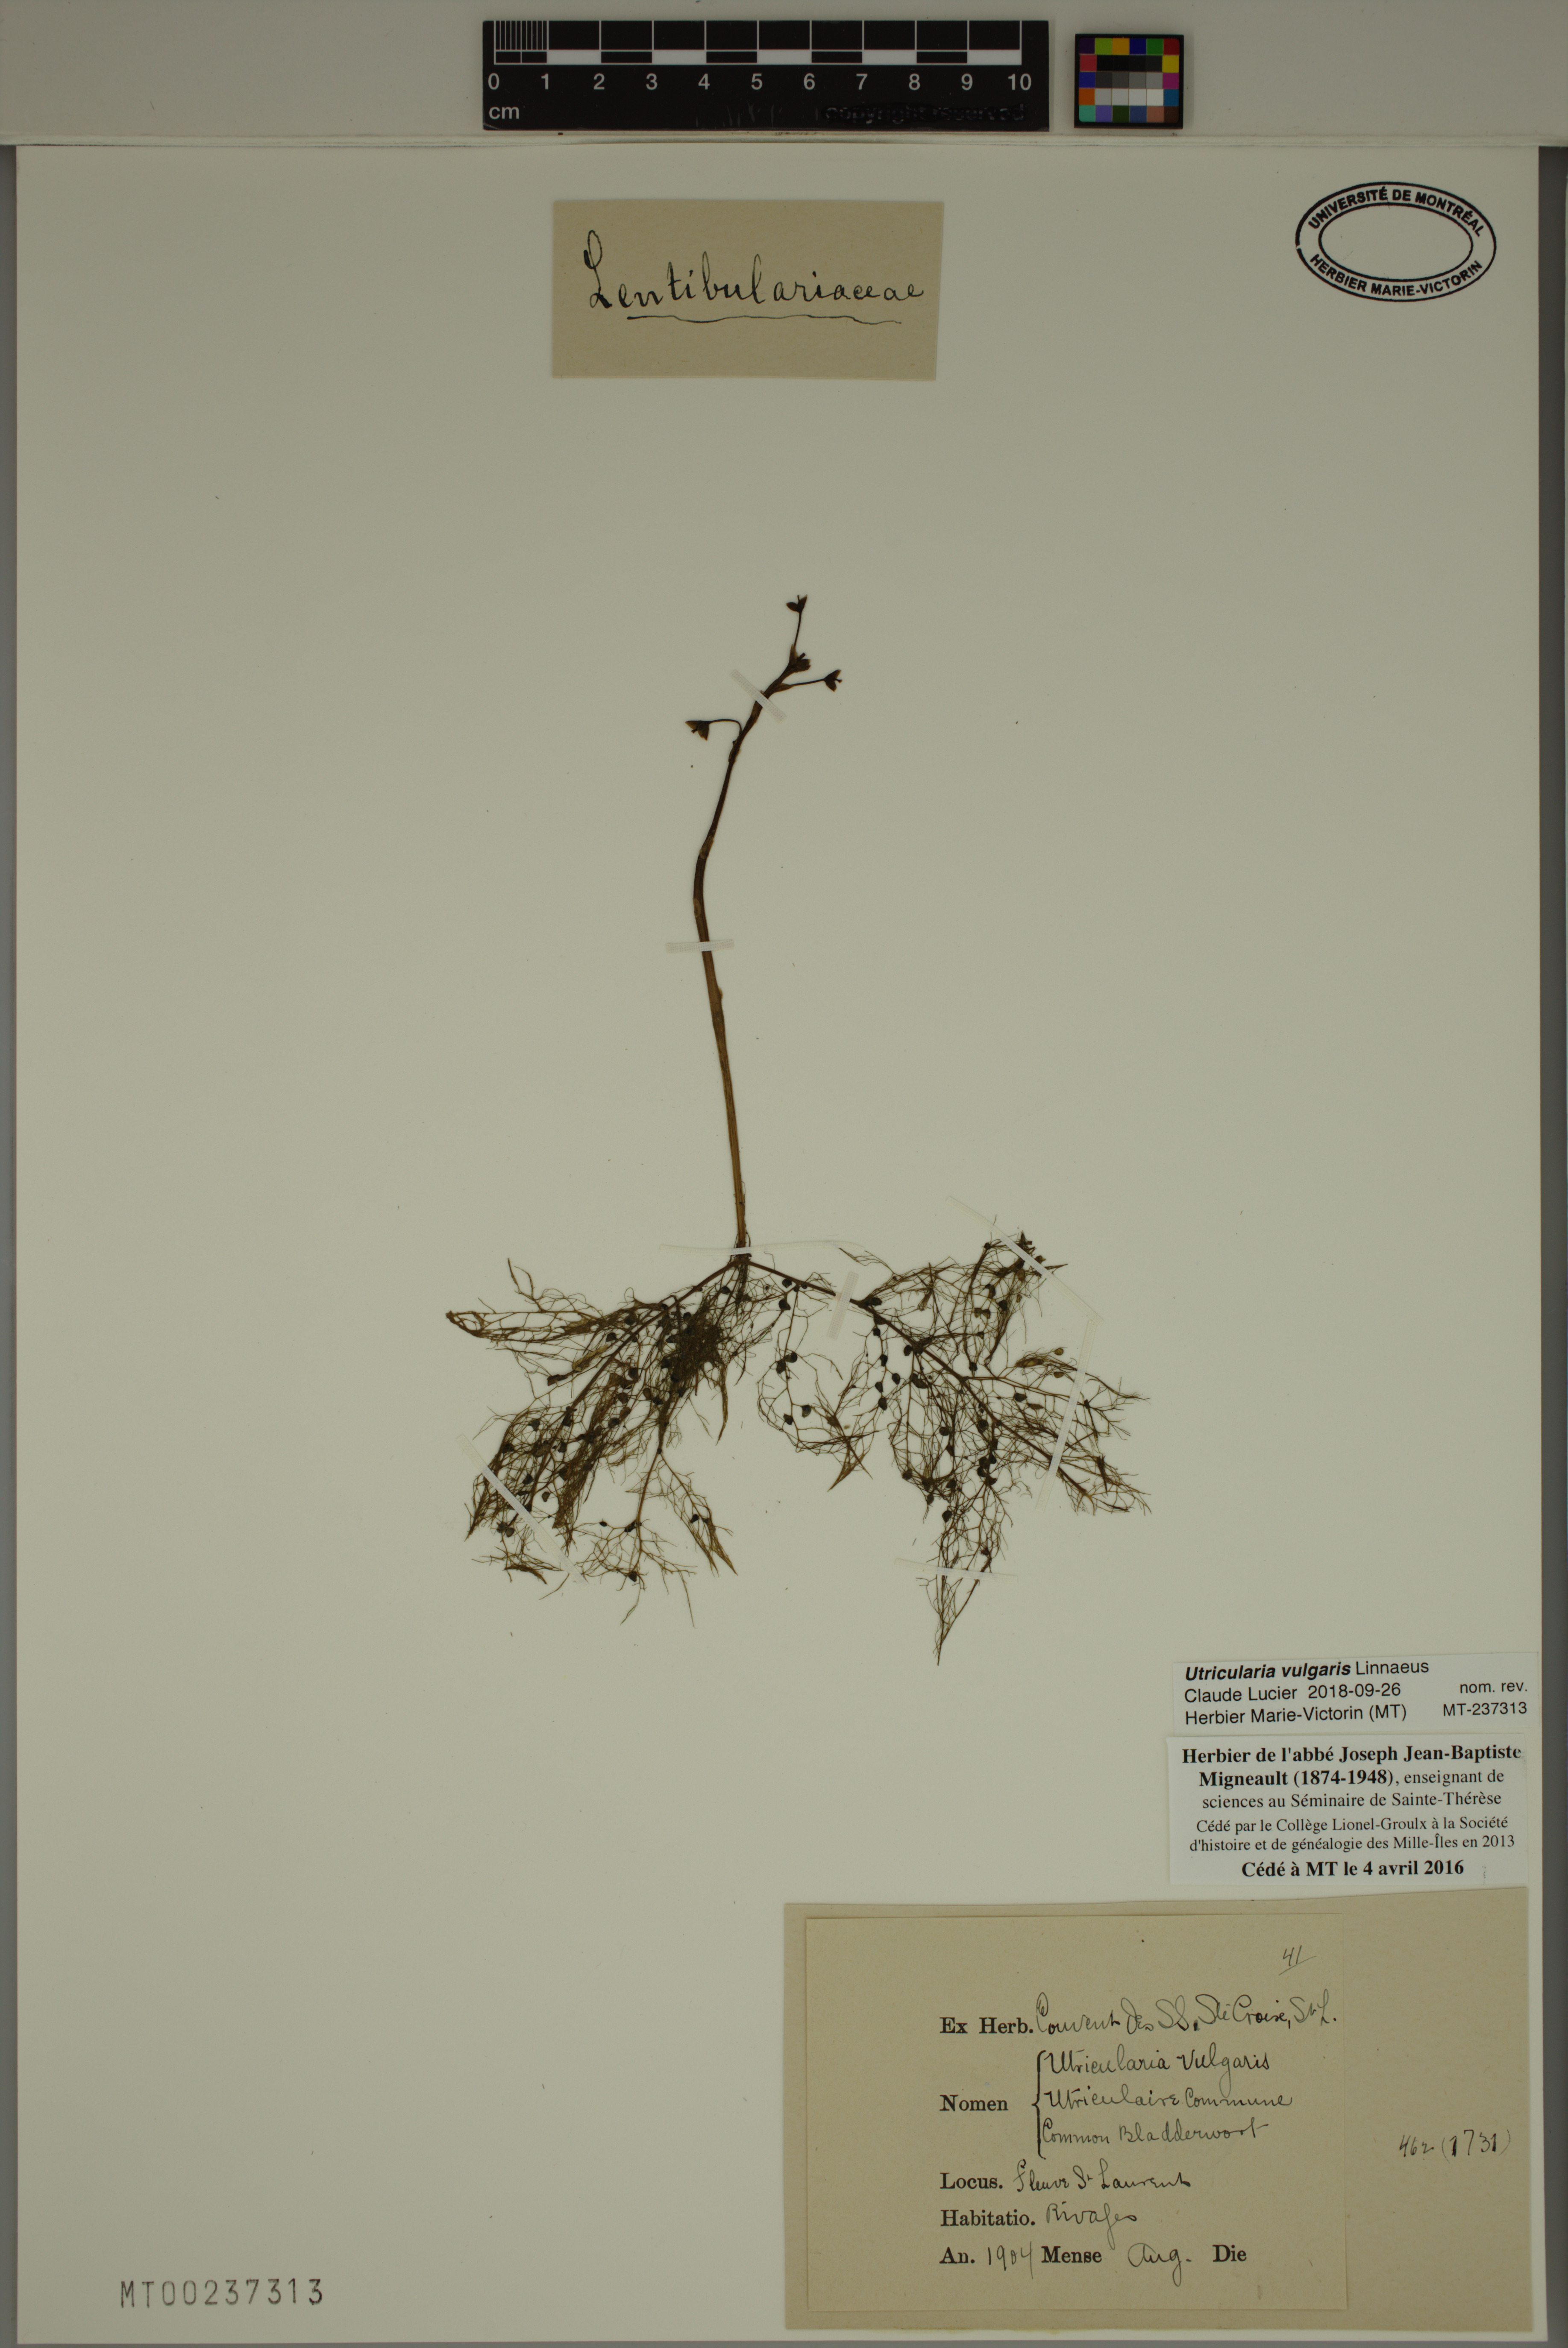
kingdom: Plantae
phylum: Tracheophyta
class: Magnoliopsida
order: Lamiales
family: Lentibulariaceae
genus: Utricularia
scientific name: Utricularia vulgaris
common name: Greater bladderwort
